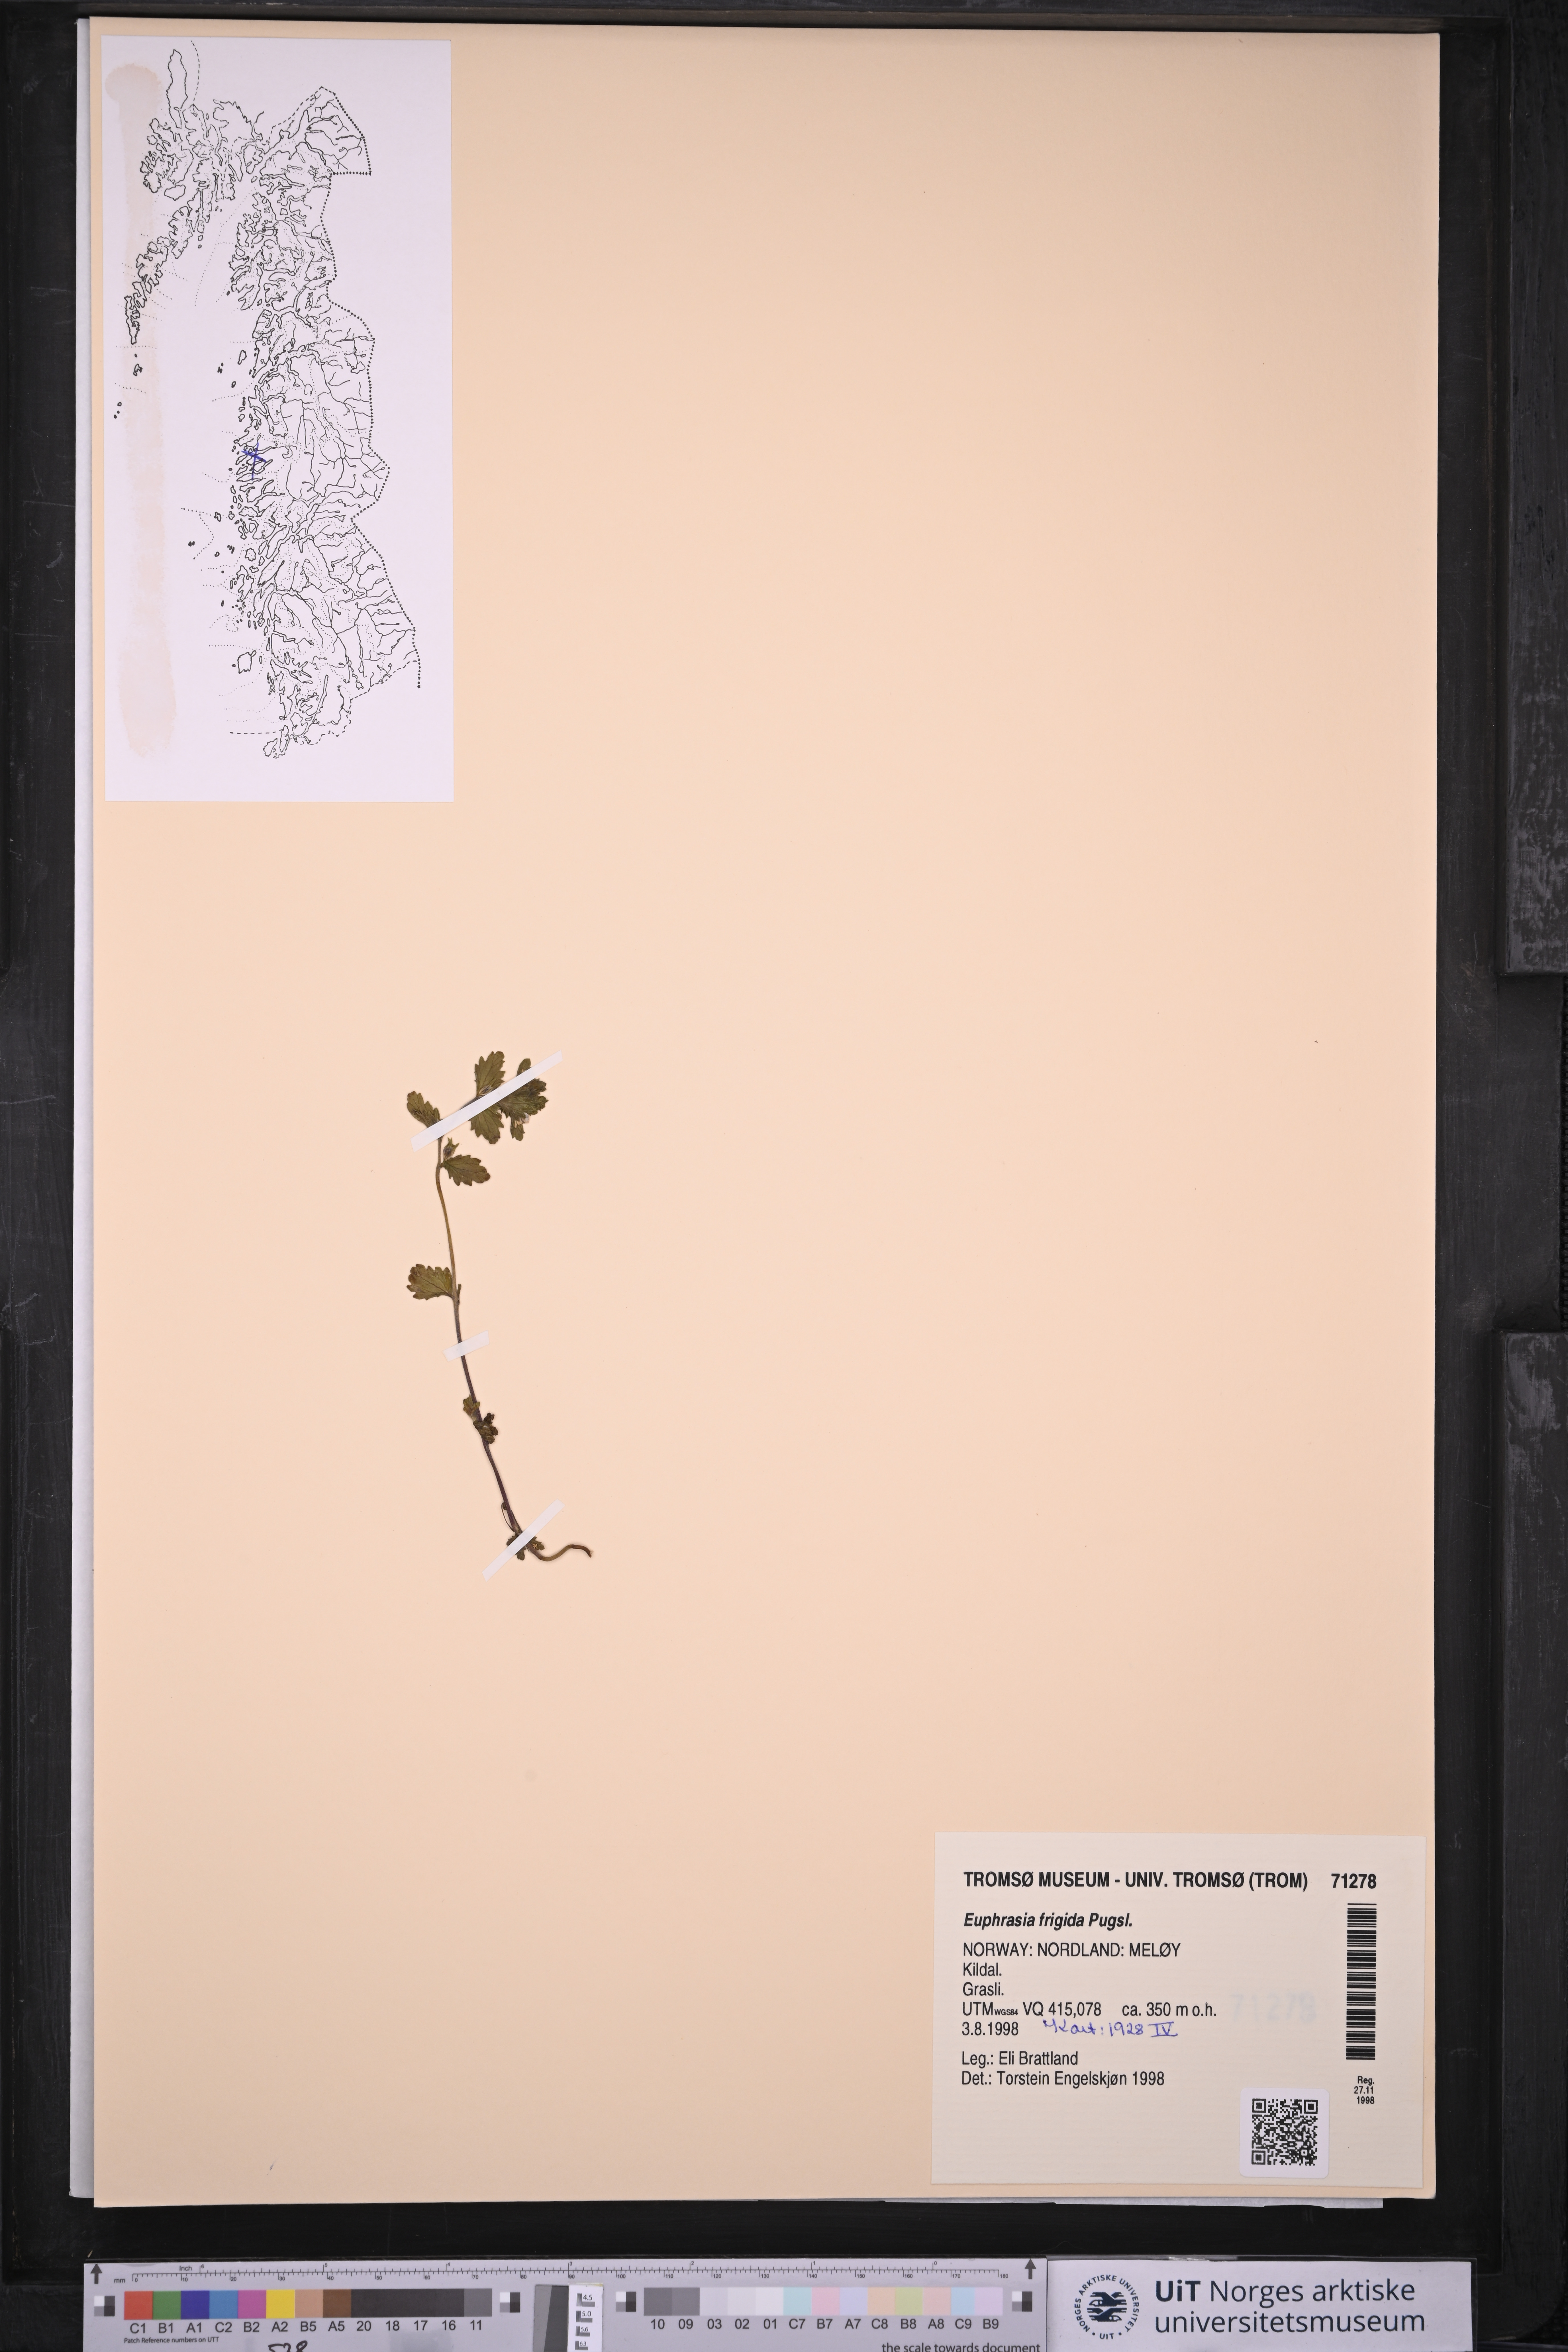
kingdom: Plantae
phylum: Tracheophyta
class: Magnoliopsida
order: Lamiales
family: Orobanchaceae
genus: Euphrasia
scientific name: Euphrasia frigida
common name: An eyebright
